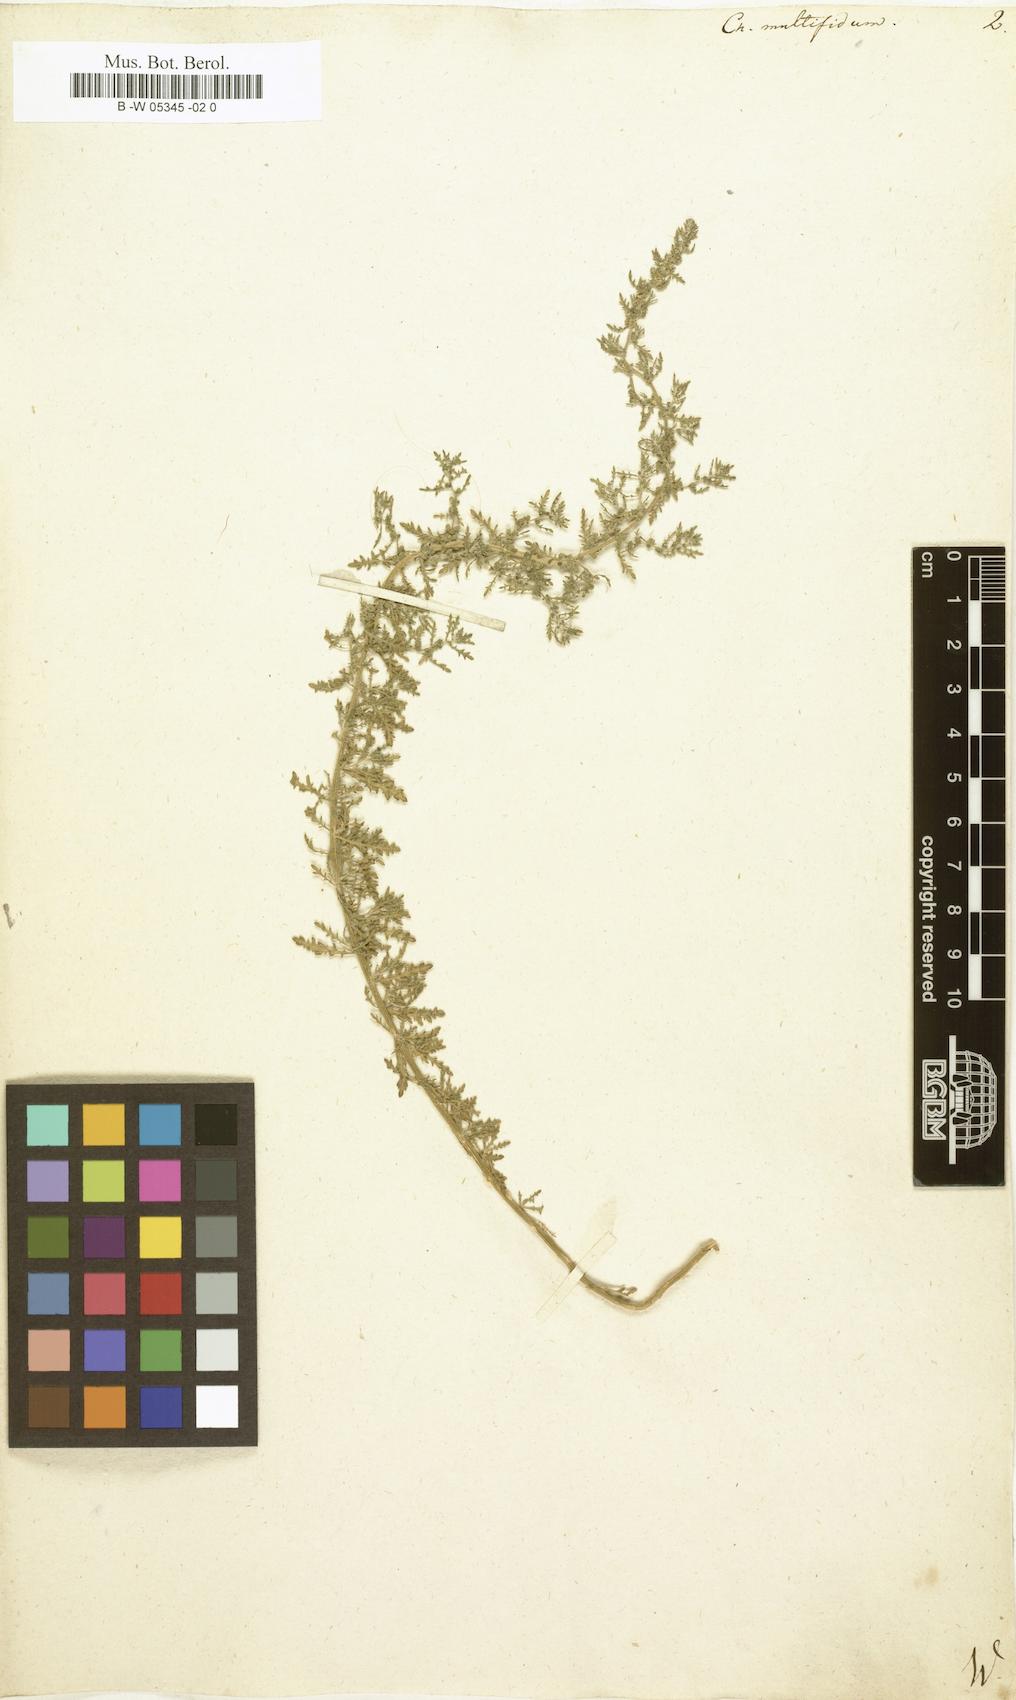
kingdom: Plantae
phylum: Tracheophyta
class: Magnoliopsida
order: Caryophyllales
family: Amaranthaceae
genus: Dysphania
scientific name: Dysphania multifida
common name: Cutleaf goosefoot
